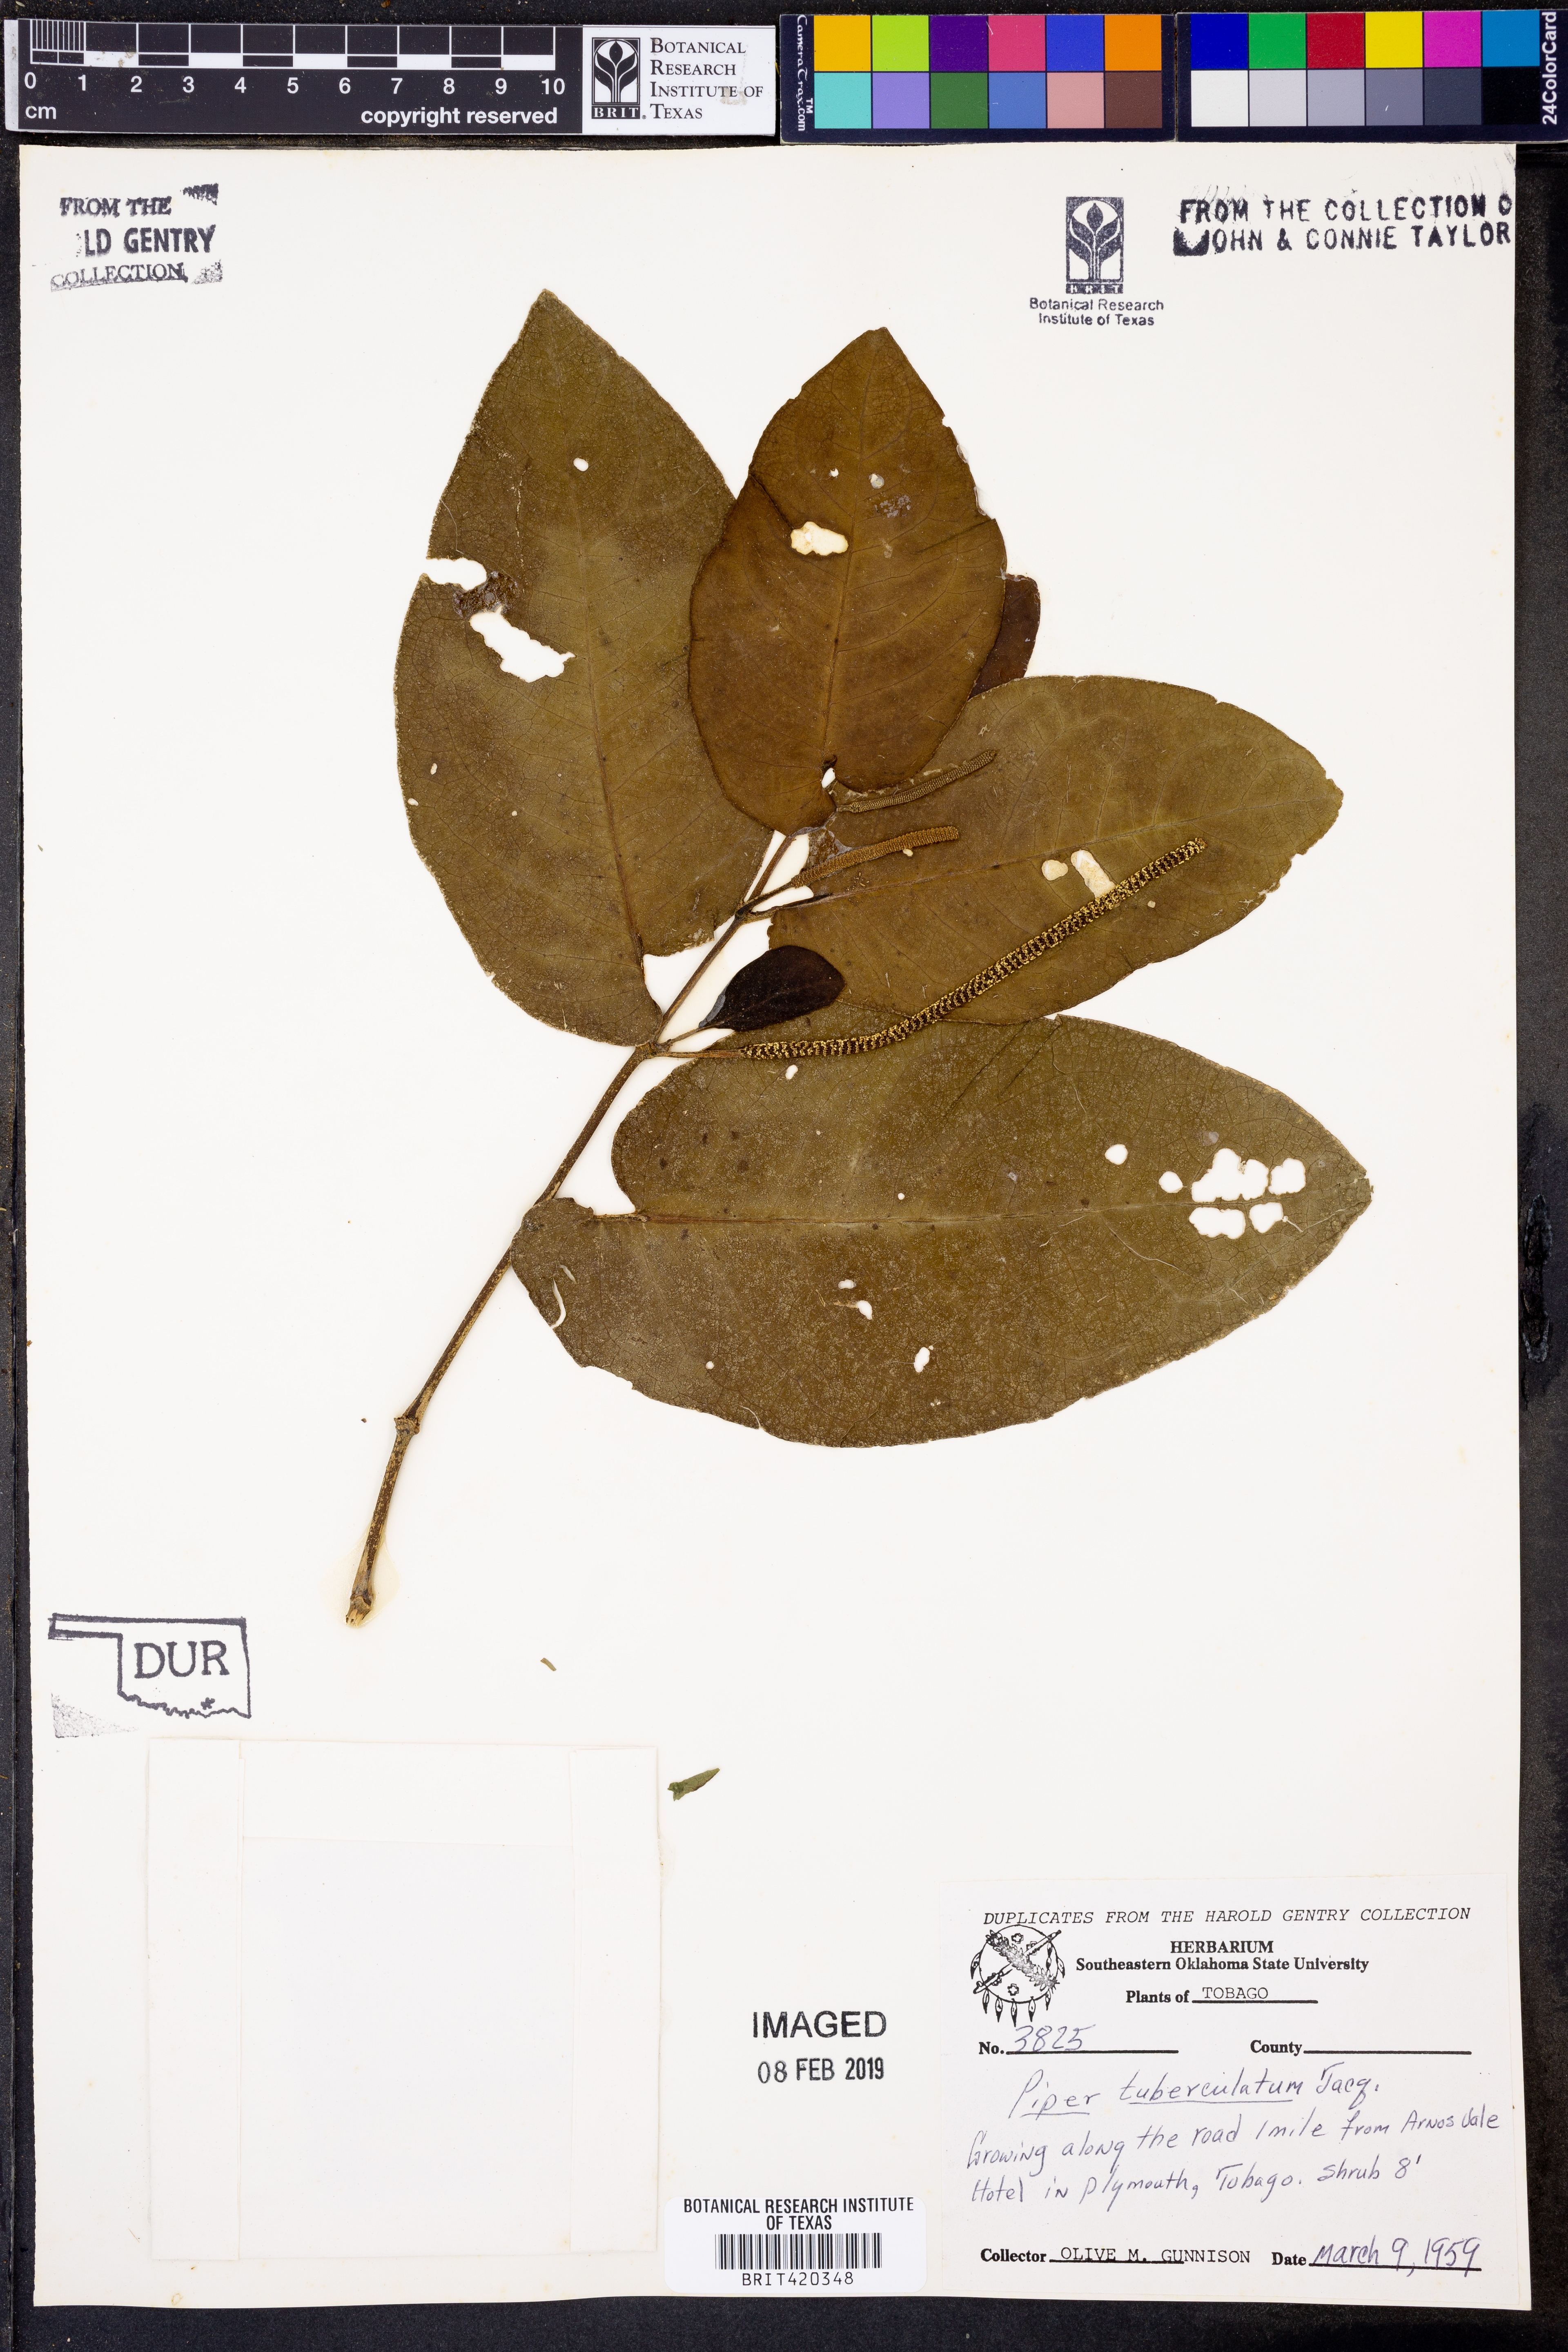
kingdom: Plantae
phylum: Tracheophyta
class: Magnoliopsida
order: Piperales
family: Piperaceae
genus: Piper
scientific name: Piper tuberculatum
